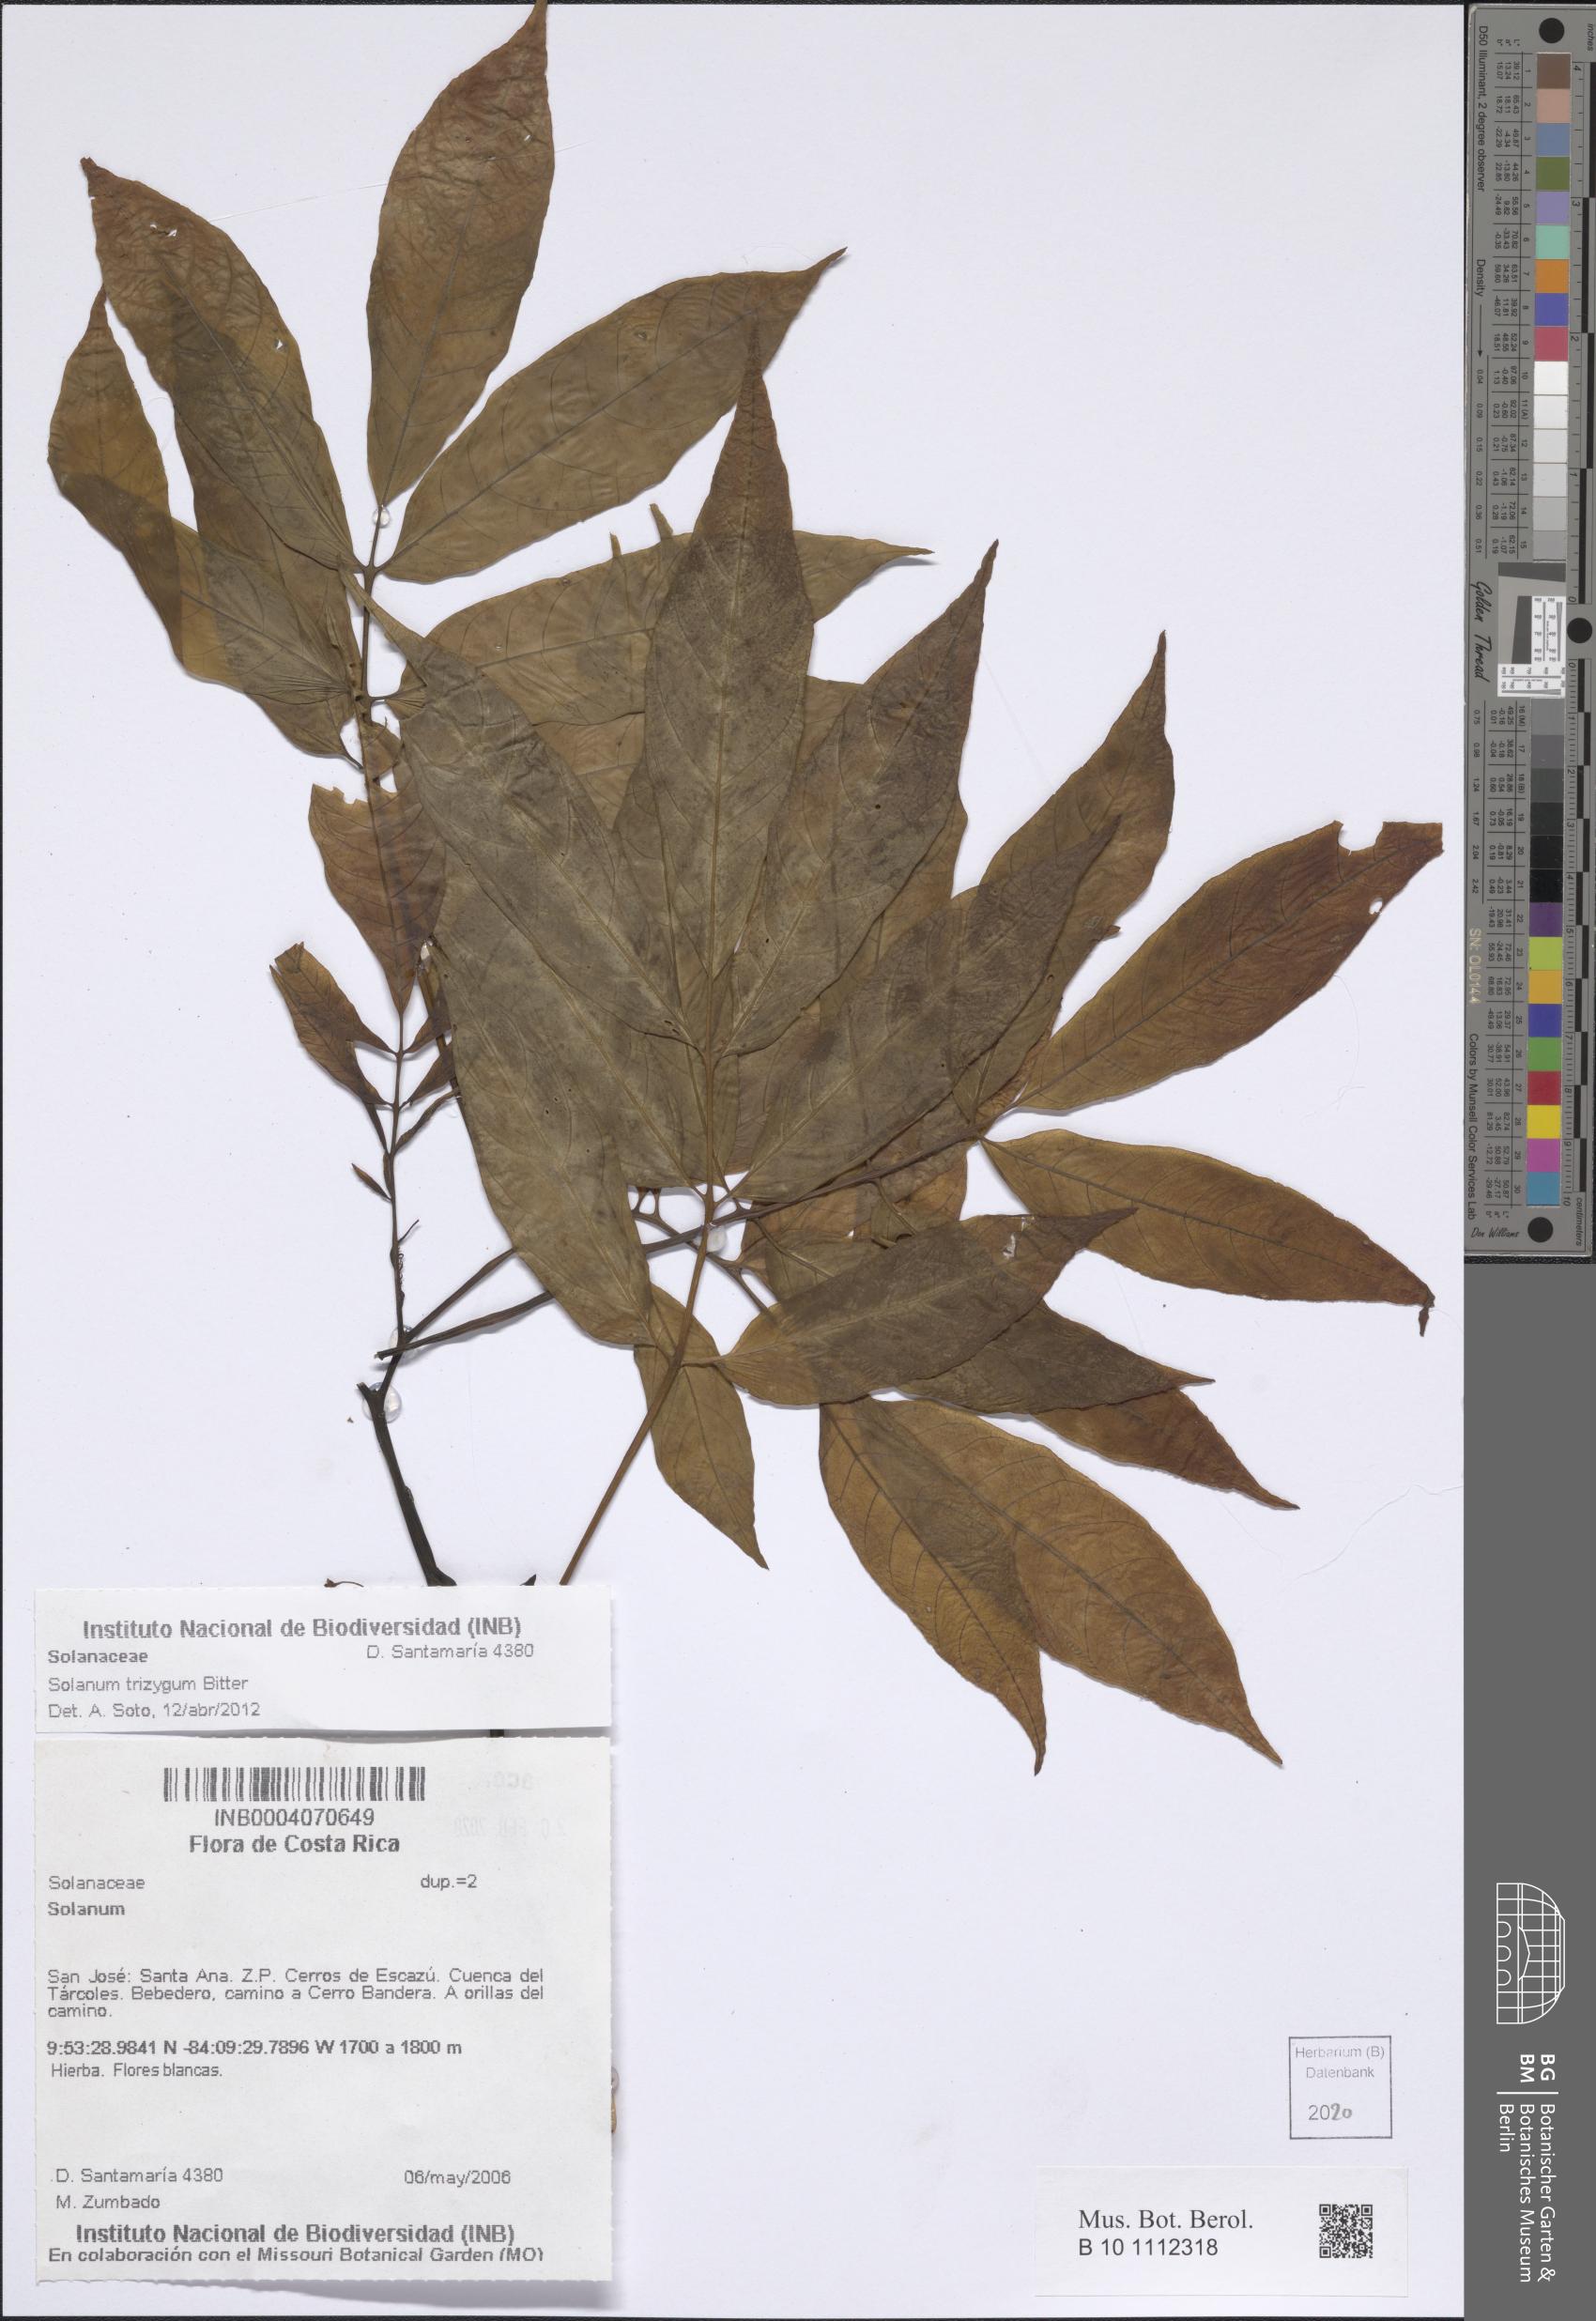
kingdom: Plantae
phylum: Tracheophyta
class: Magnoliopsida
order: Solanales
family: Solanaceae
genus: Solanum
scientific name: Solanum trizygum
